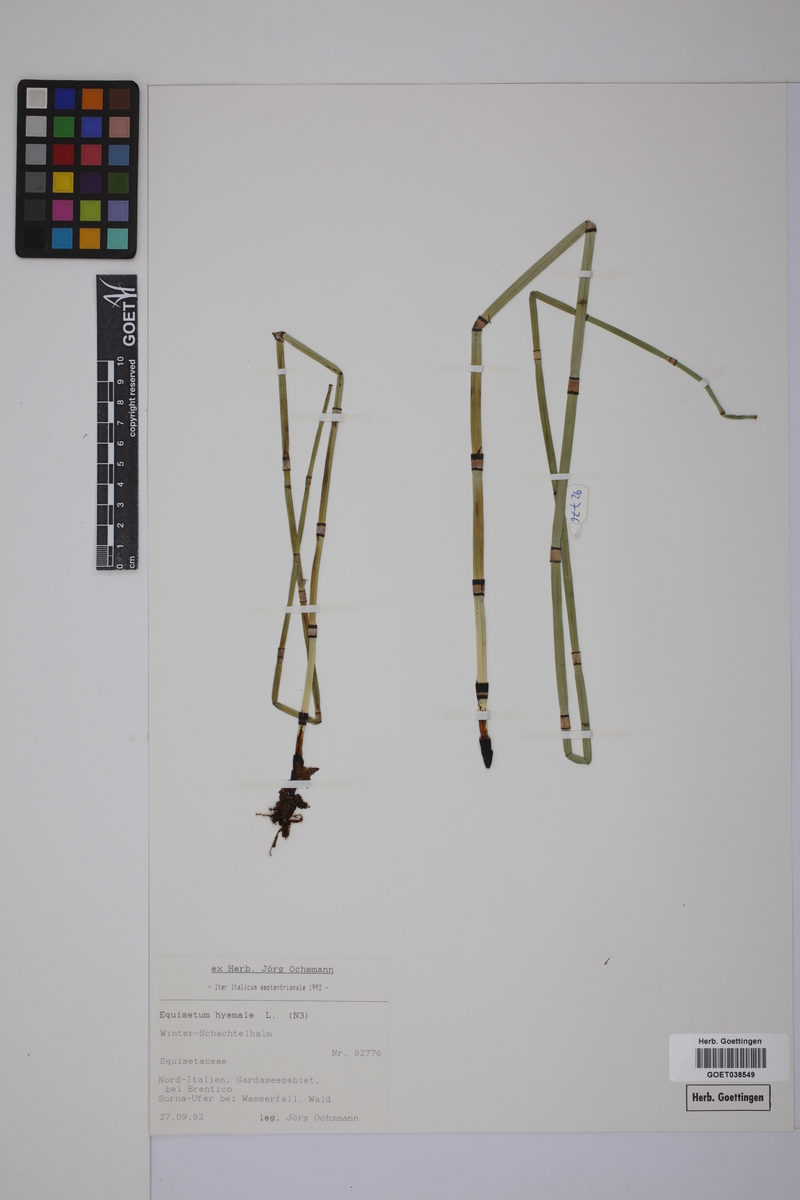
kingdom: Plantae
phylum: Tracheophyta
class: Polypodiopsida
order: Equisetales
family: Equisetaceae
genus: Equisetum
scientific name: Equisetum hyemale
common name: Rough horsetail
